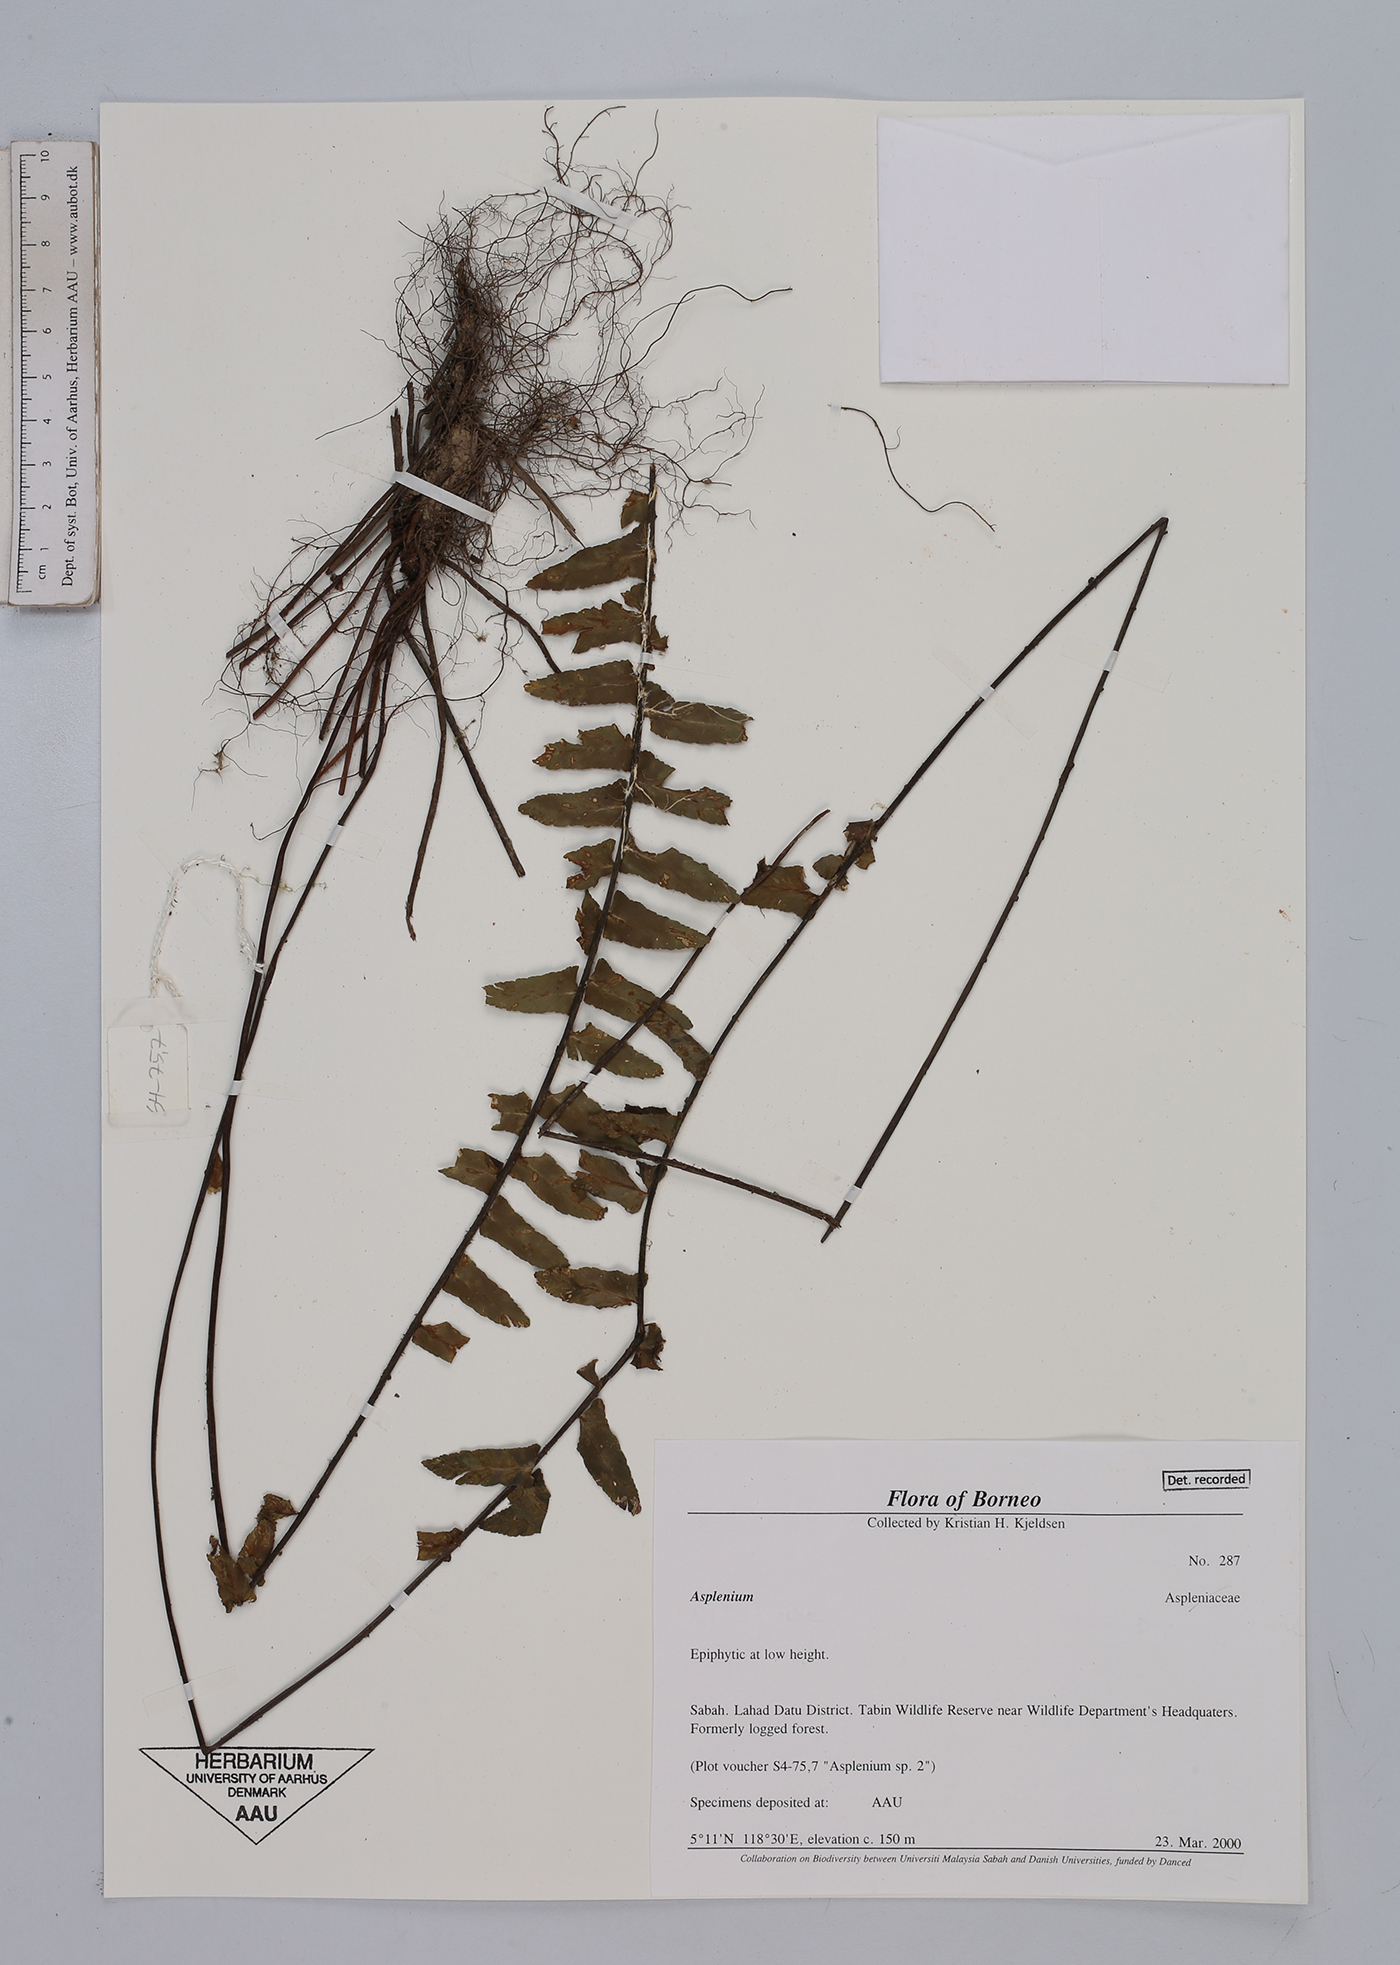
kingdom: Plantae
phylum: Tracheophyta
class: Polypodiopsida
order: Polypodiales
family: Aspleniaceae
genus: Asplenium
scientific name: Asplenium
